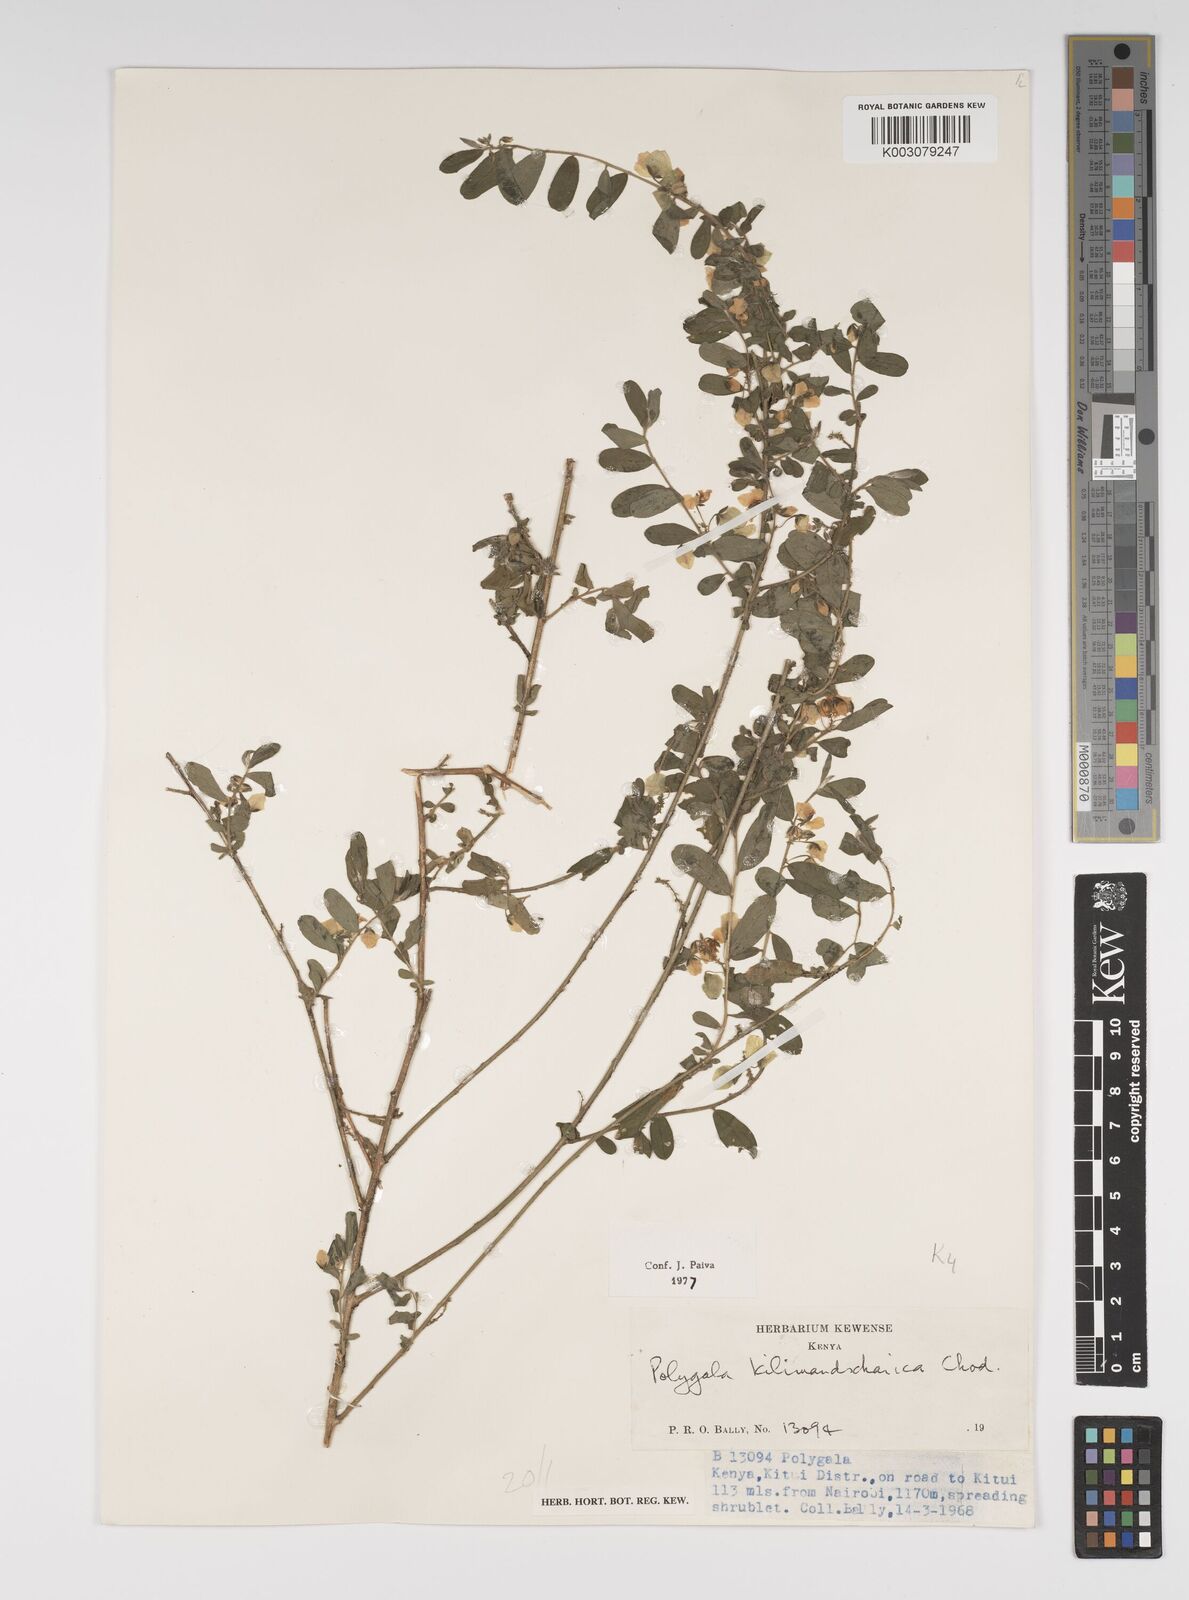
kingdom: Plantae
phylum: Tracheophyta
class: Magnoliopsida
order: Fabales
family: Polygalaceae
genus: Polygala
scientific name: Polygala kilimandjarica
